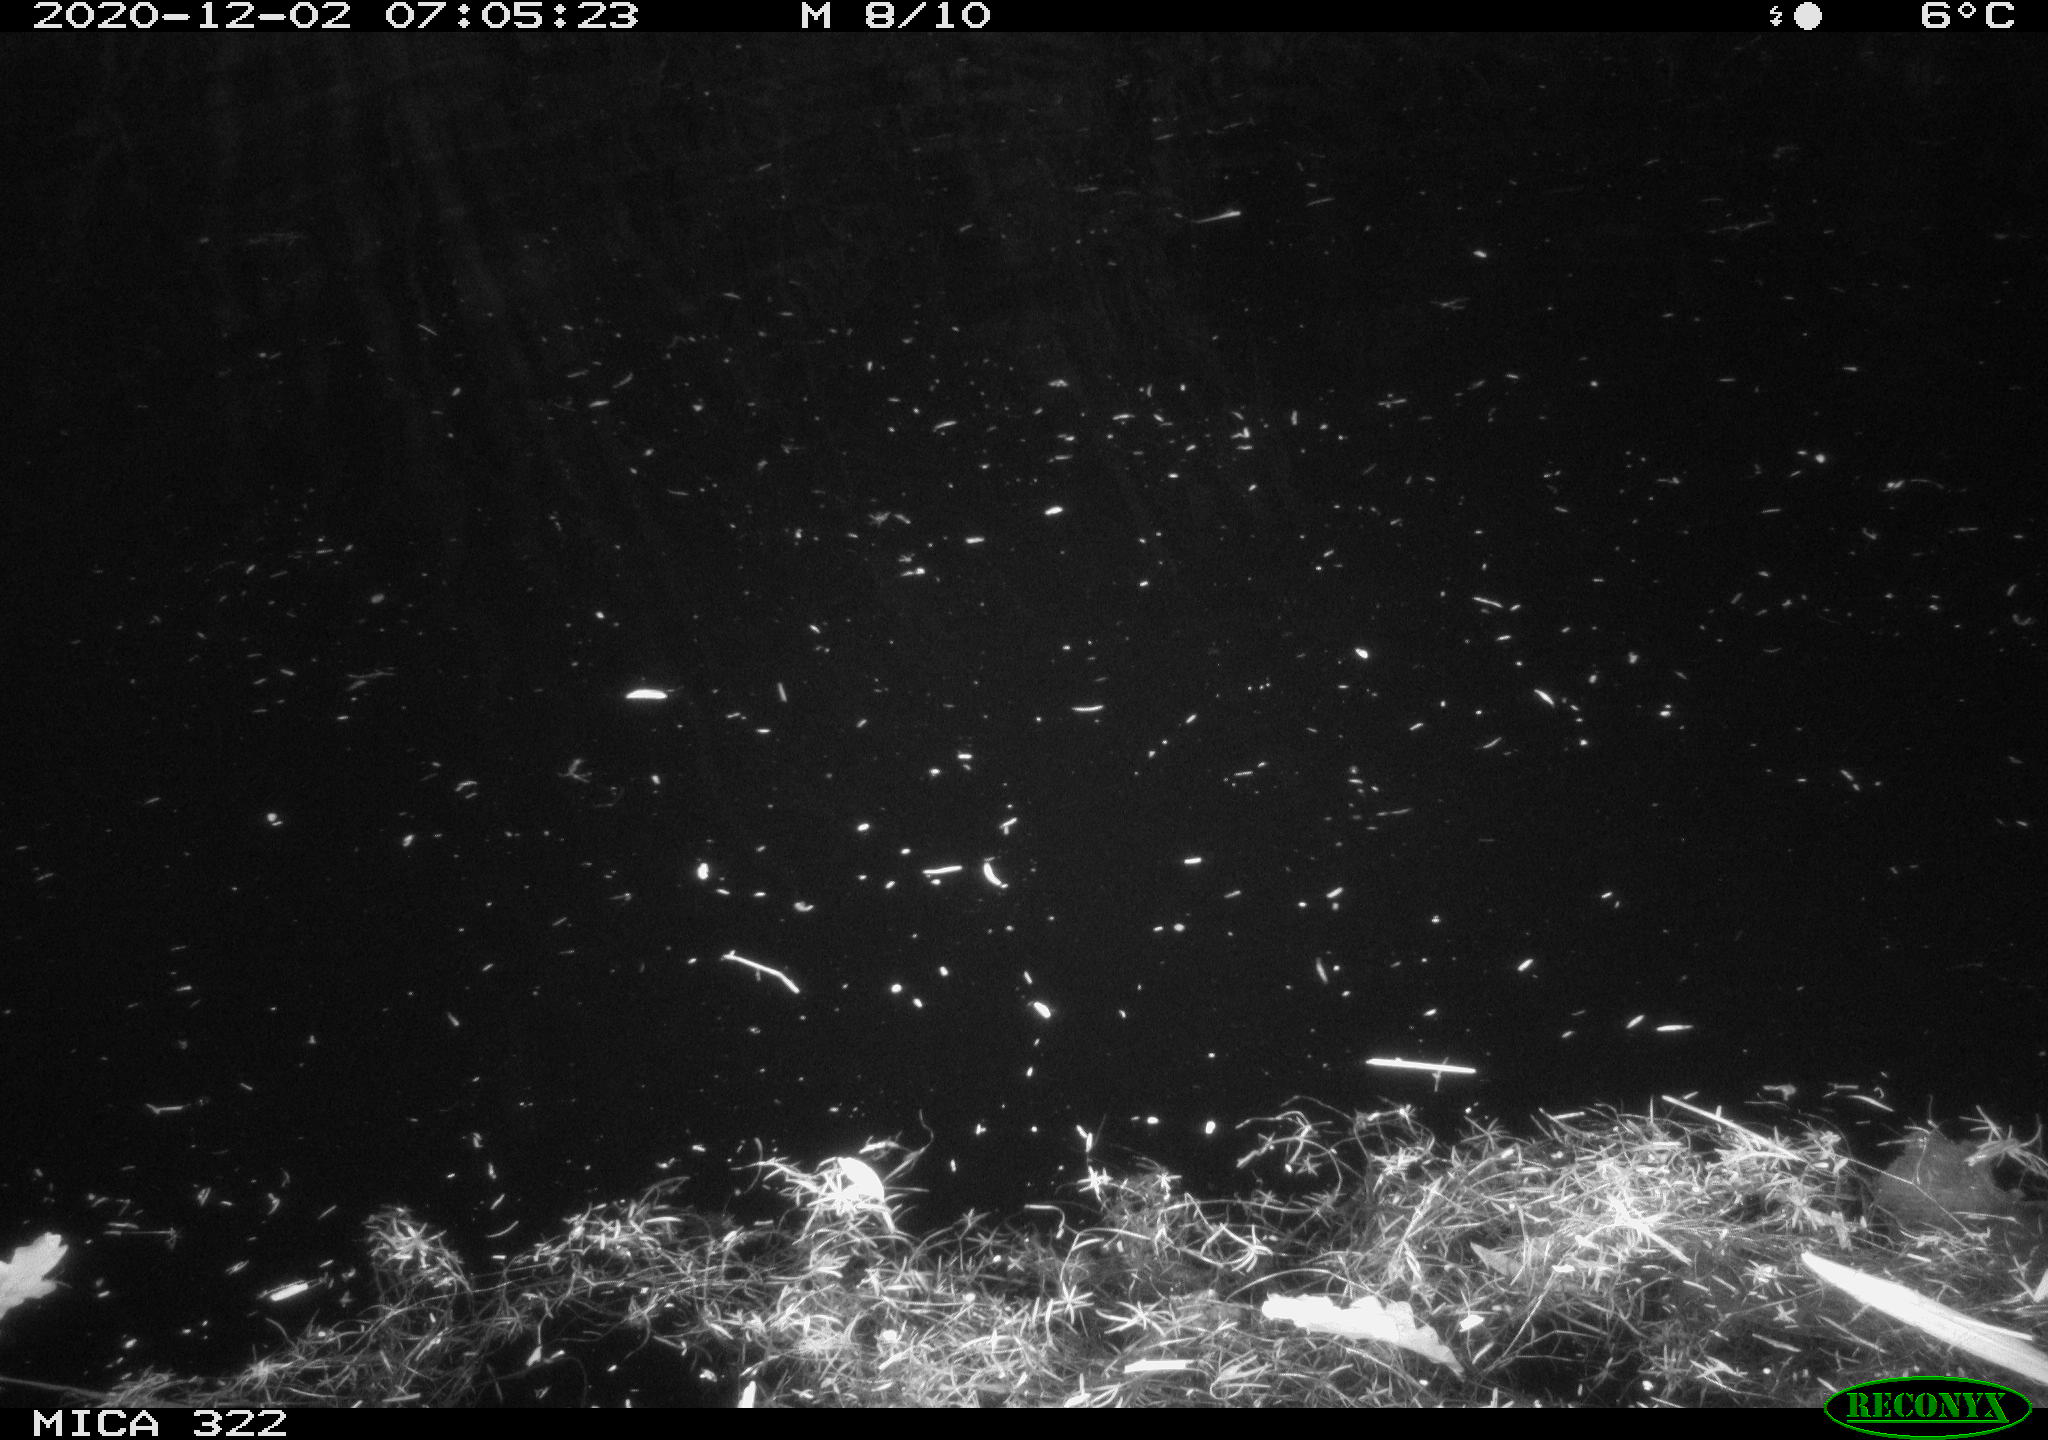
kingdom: Animalia
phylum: Chordata
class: Mammalia
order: Rodentia
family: Muridae
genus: Rattus
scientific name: Rattus norvegicus
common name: Brown rat
